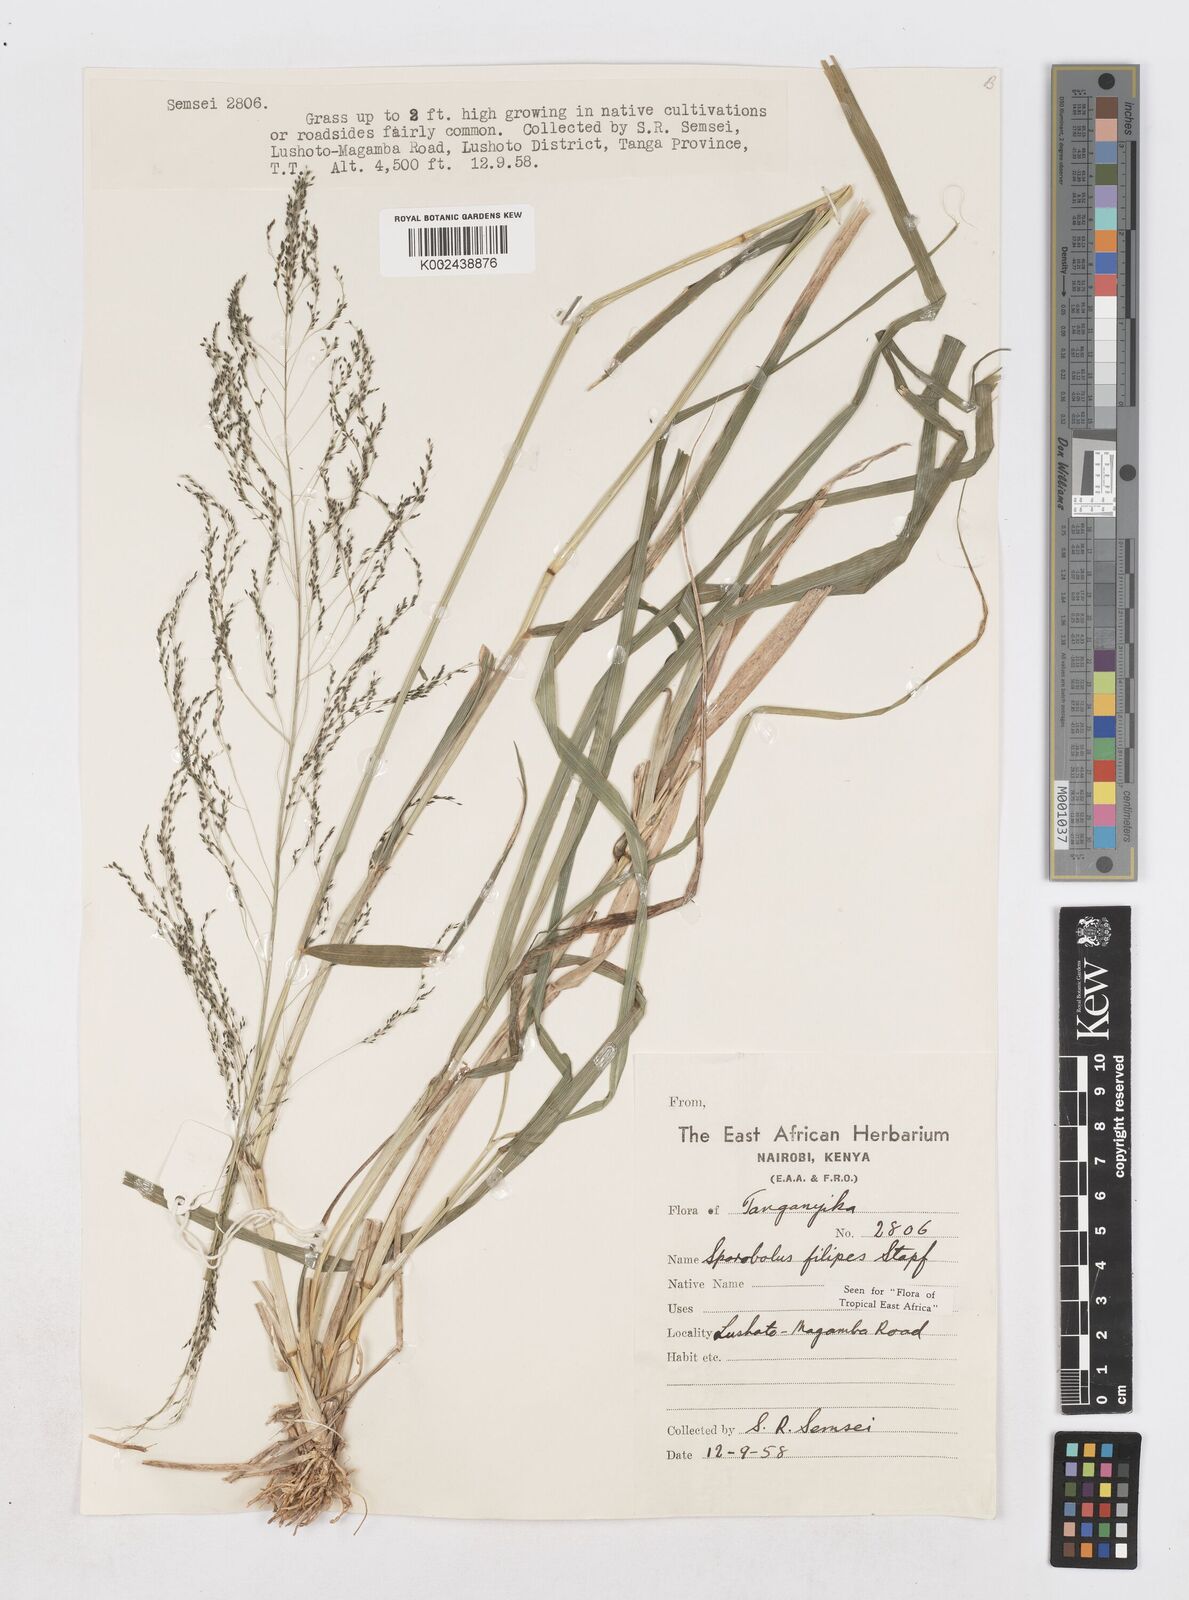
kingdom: Plantae
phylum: Tracheophyta
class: Liliopsida
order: Poales
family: Poaceae
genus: Sporobolus
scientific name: Sporobolus agrostoides
